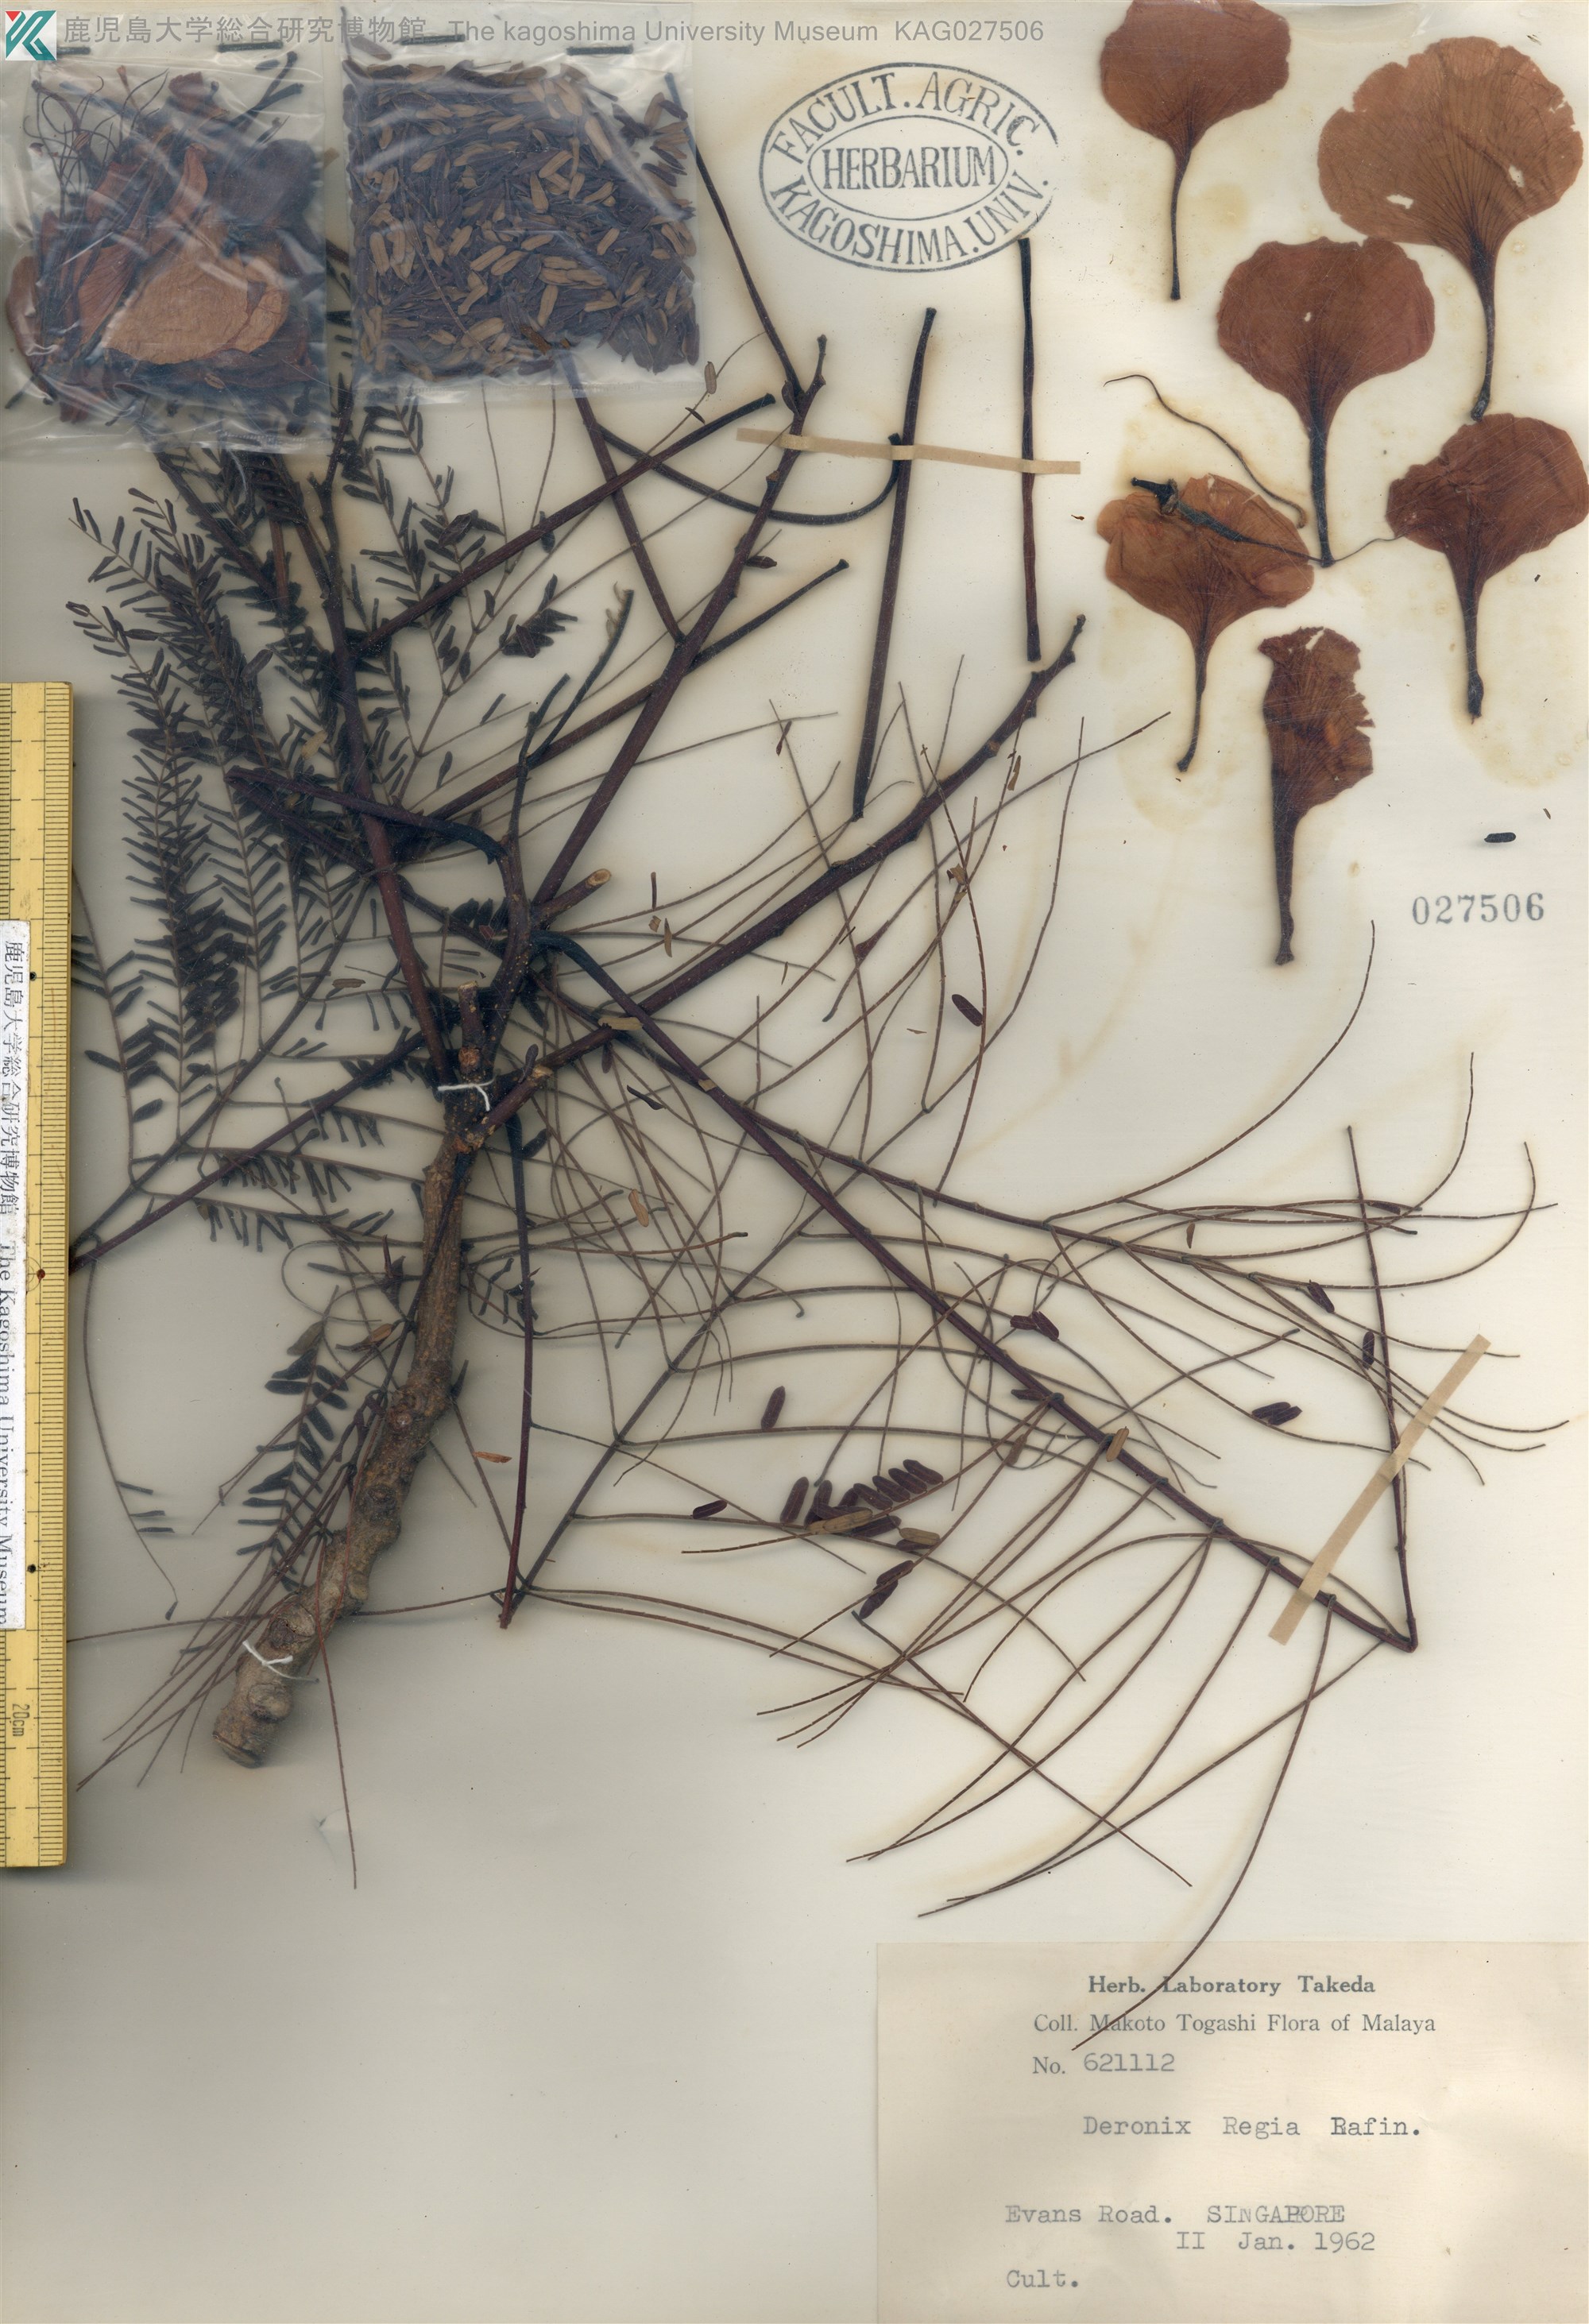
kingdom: Plantae
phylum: Tracheophyta
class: Magnoliopsida
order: Fabales
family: Fabaceae
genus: Delonix
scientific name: Delonix regia
